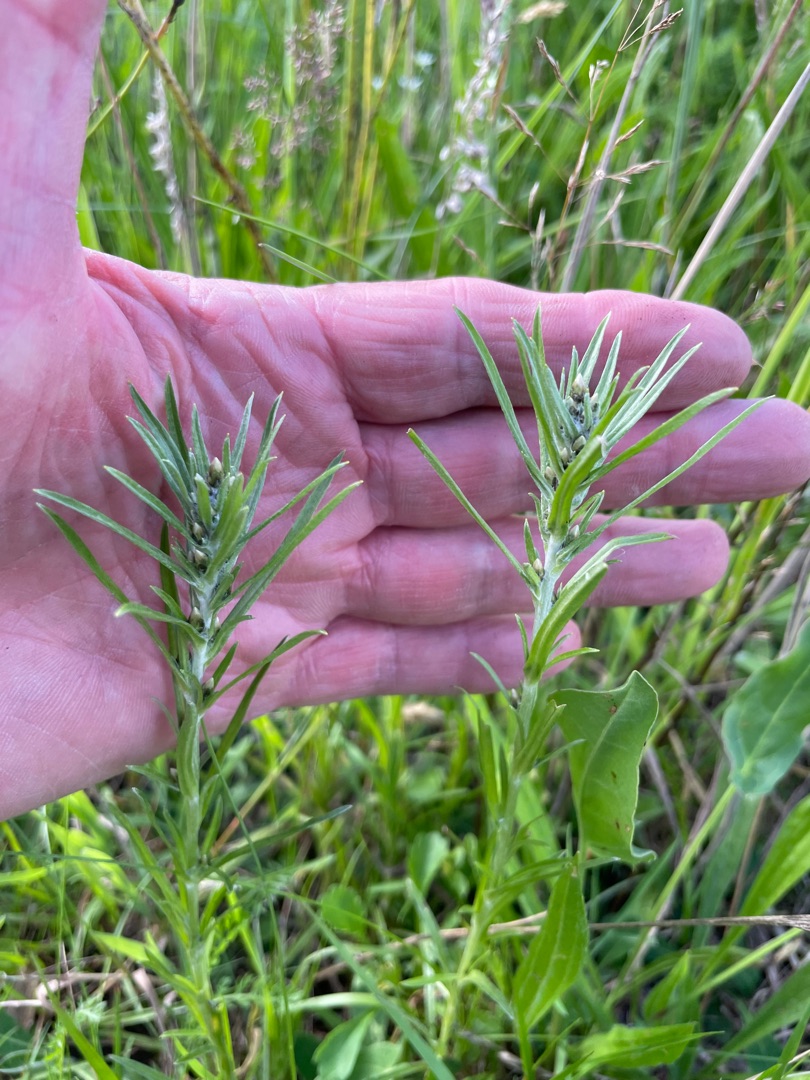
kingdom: Plantae
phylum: Tracheophyta
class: Magnoliopsida
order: Asterales
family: Asteraceae
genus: Omalotheca
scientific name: Omalotheca sylvatica
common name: Rank evighedsblomst
